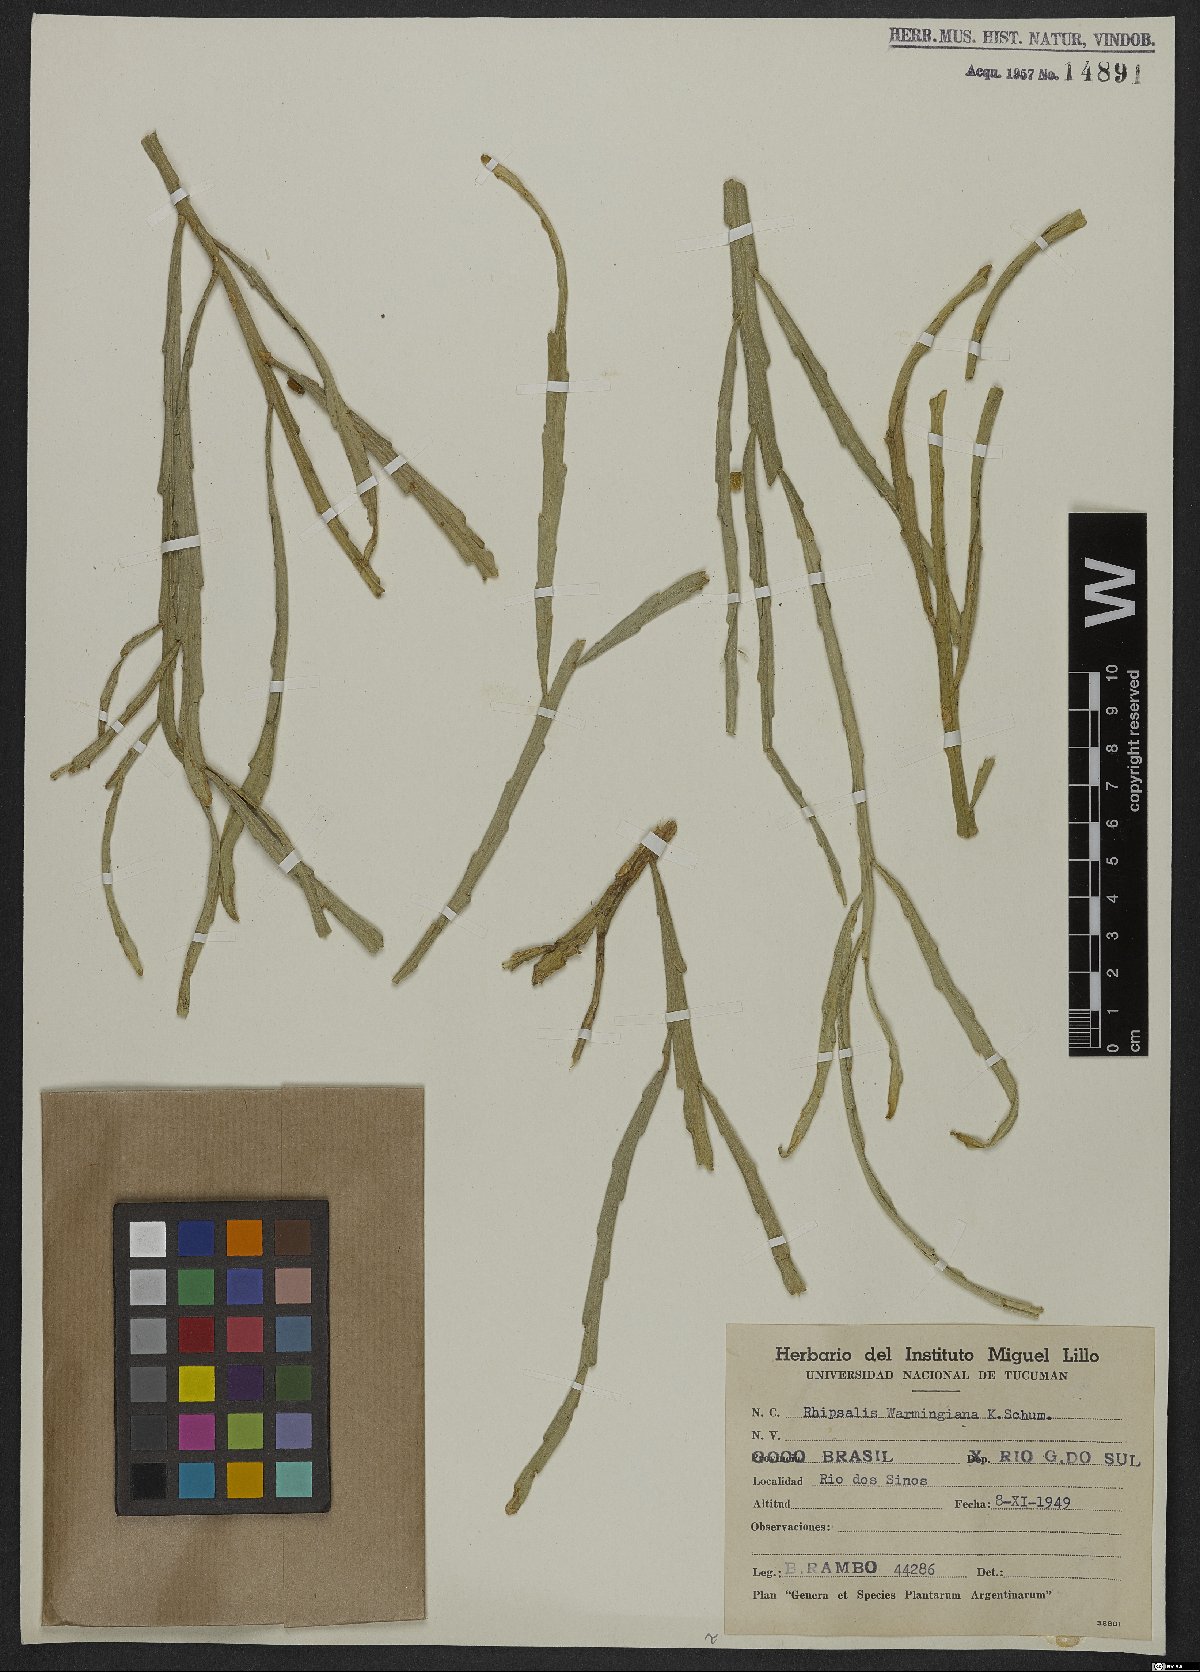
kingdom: Plantae
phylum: Tracheophyta
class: Magnoliopsida
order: Caryophyllales
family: Cactaceae
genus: Lepismium
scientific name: Lepismium warmingianum
